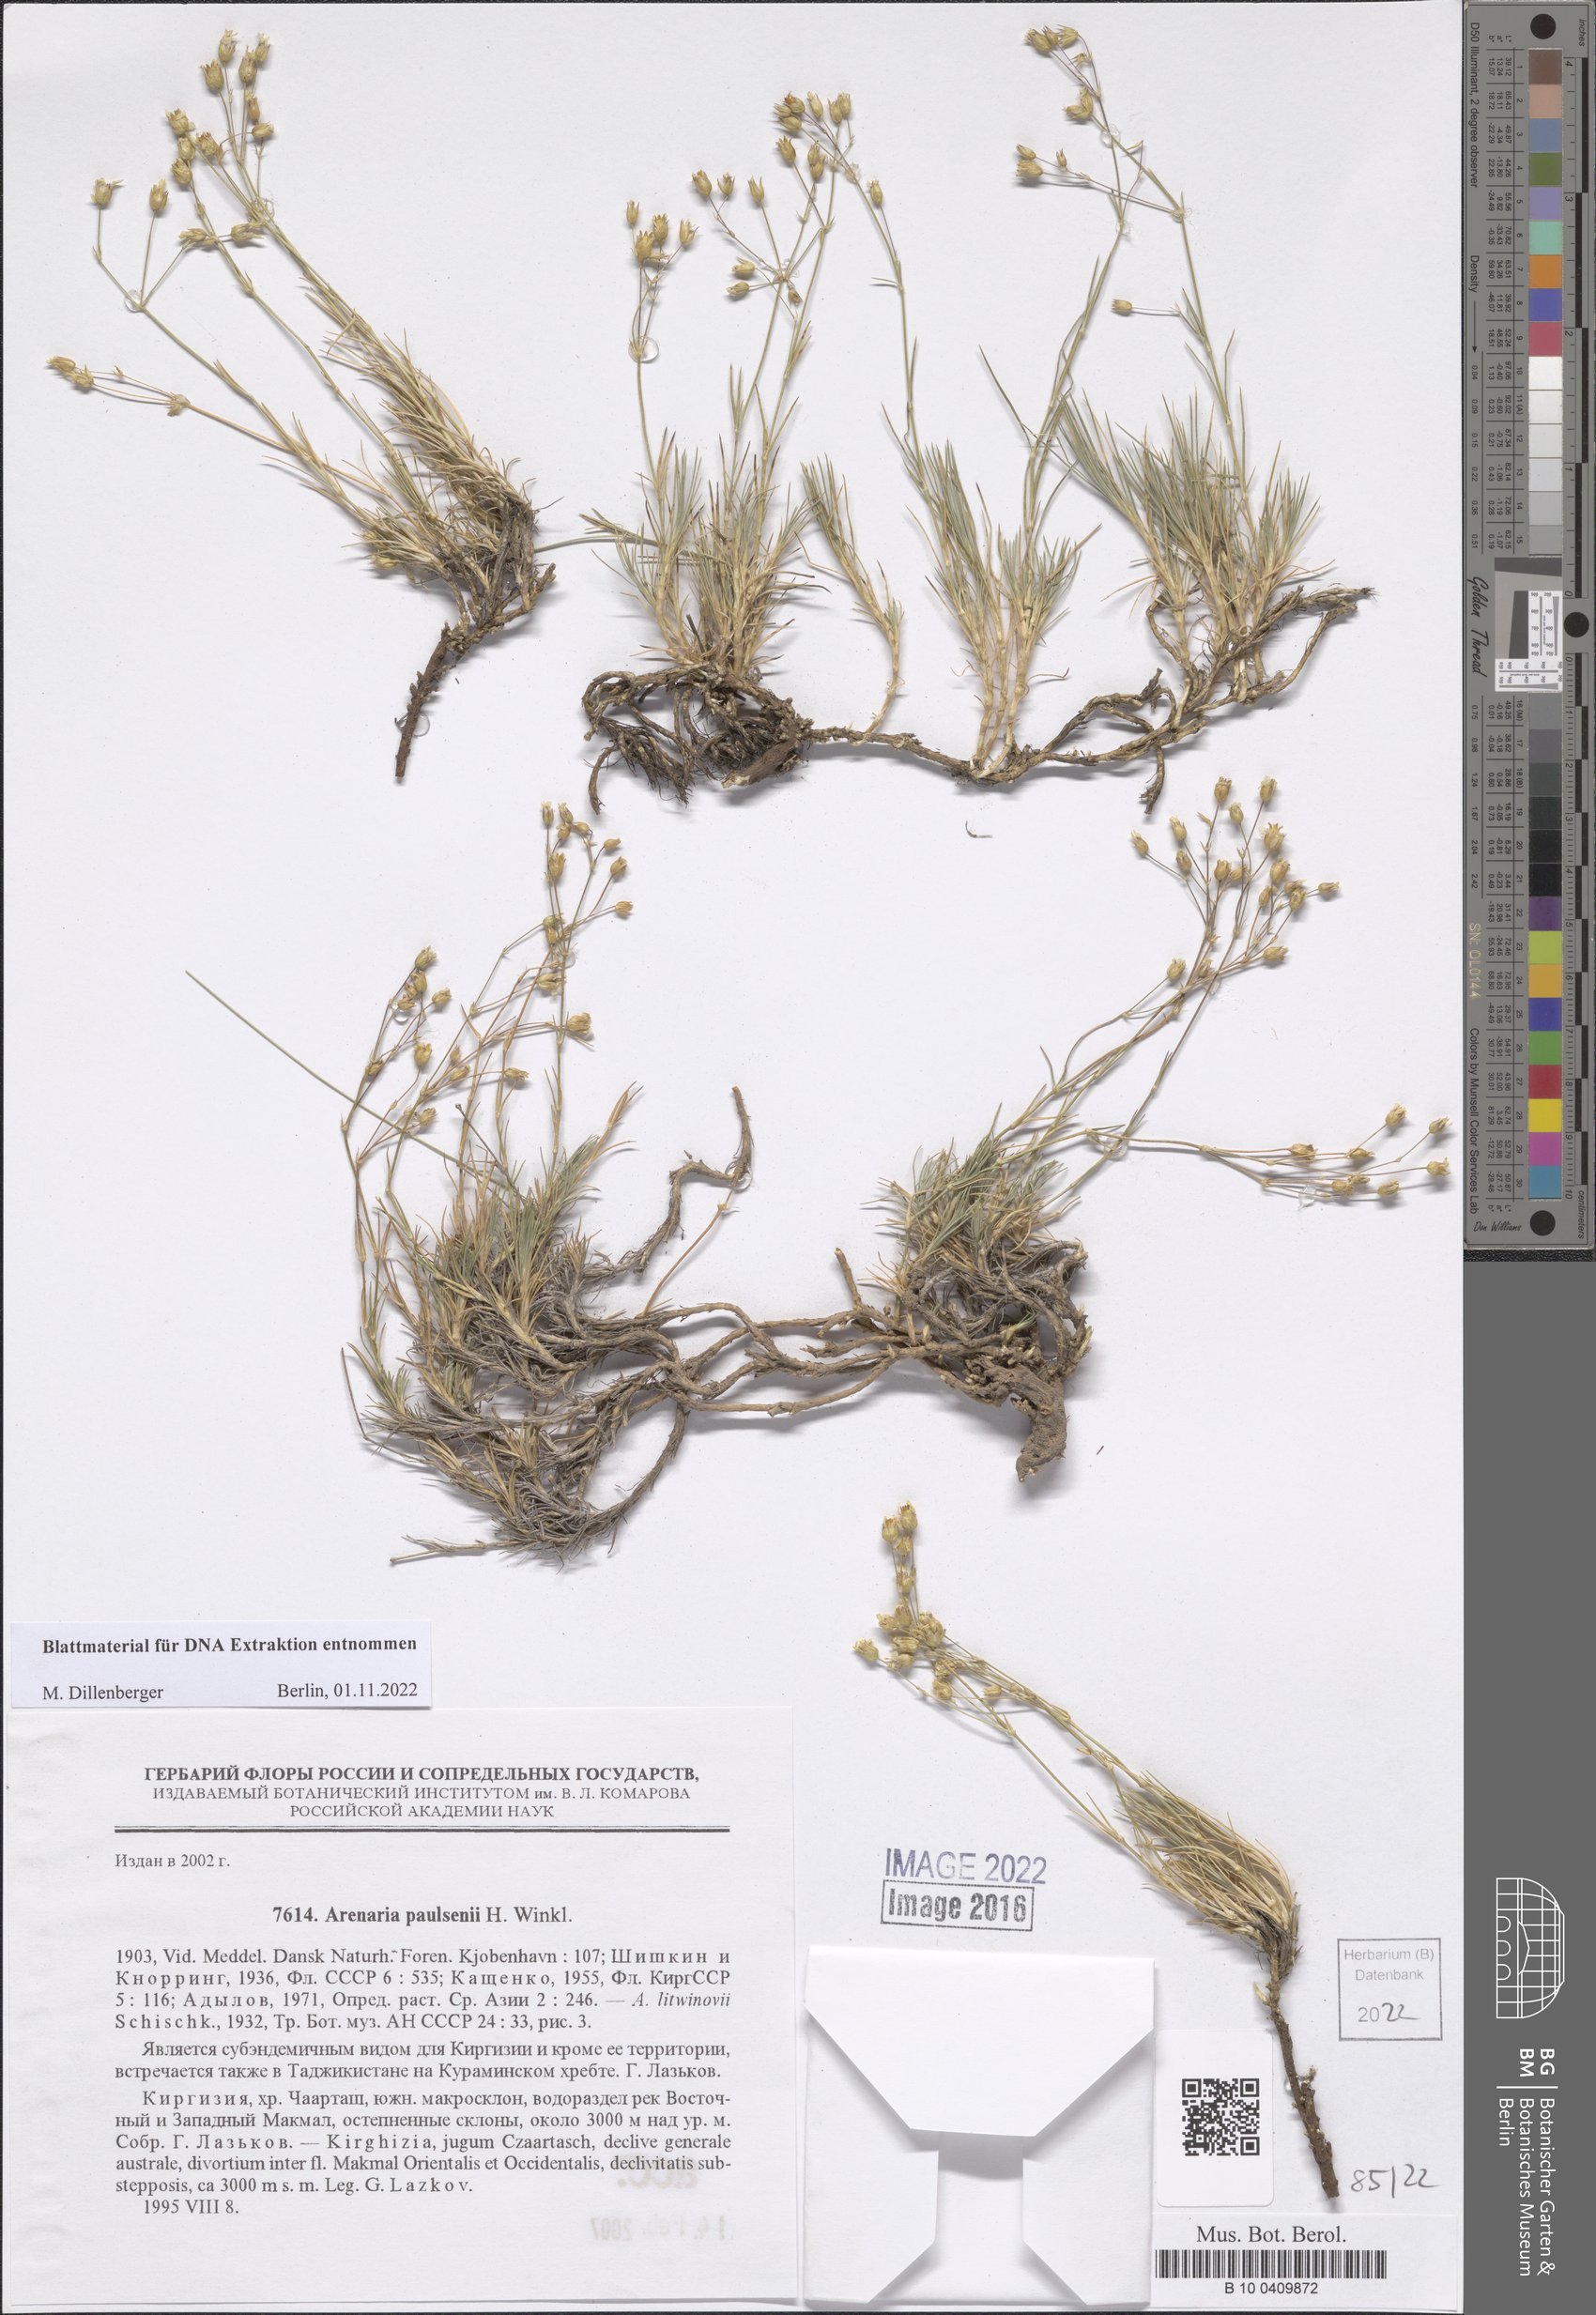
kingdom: Plantae
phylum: Tracheophyta
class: Magnoliopsida
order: Caryophyllales
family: Caryophyllaceae
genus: Eremogone
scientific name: Eremogone paulsenii
